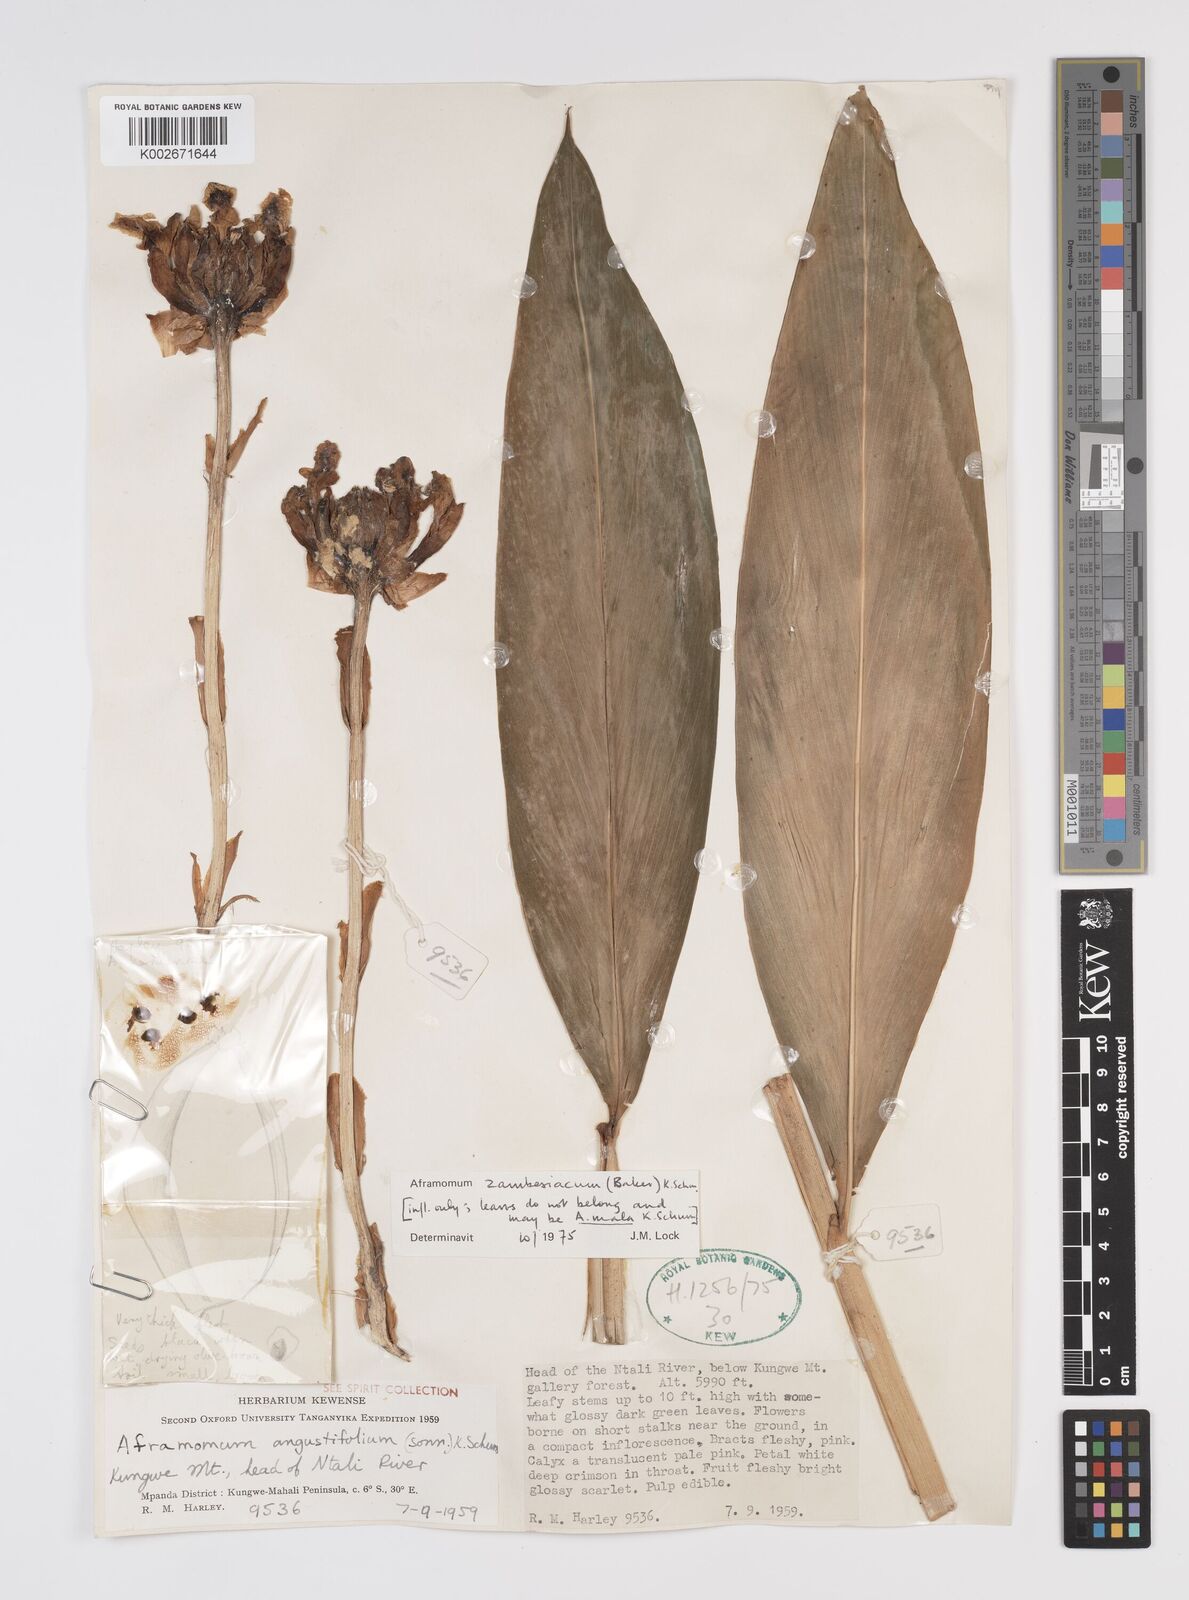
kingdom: Plantae
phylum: Tracheophyta
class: Liliopsida
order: Zingiberales
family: Zingiberaceae
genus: Aframomum
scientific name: Aframomum zambesiacum
